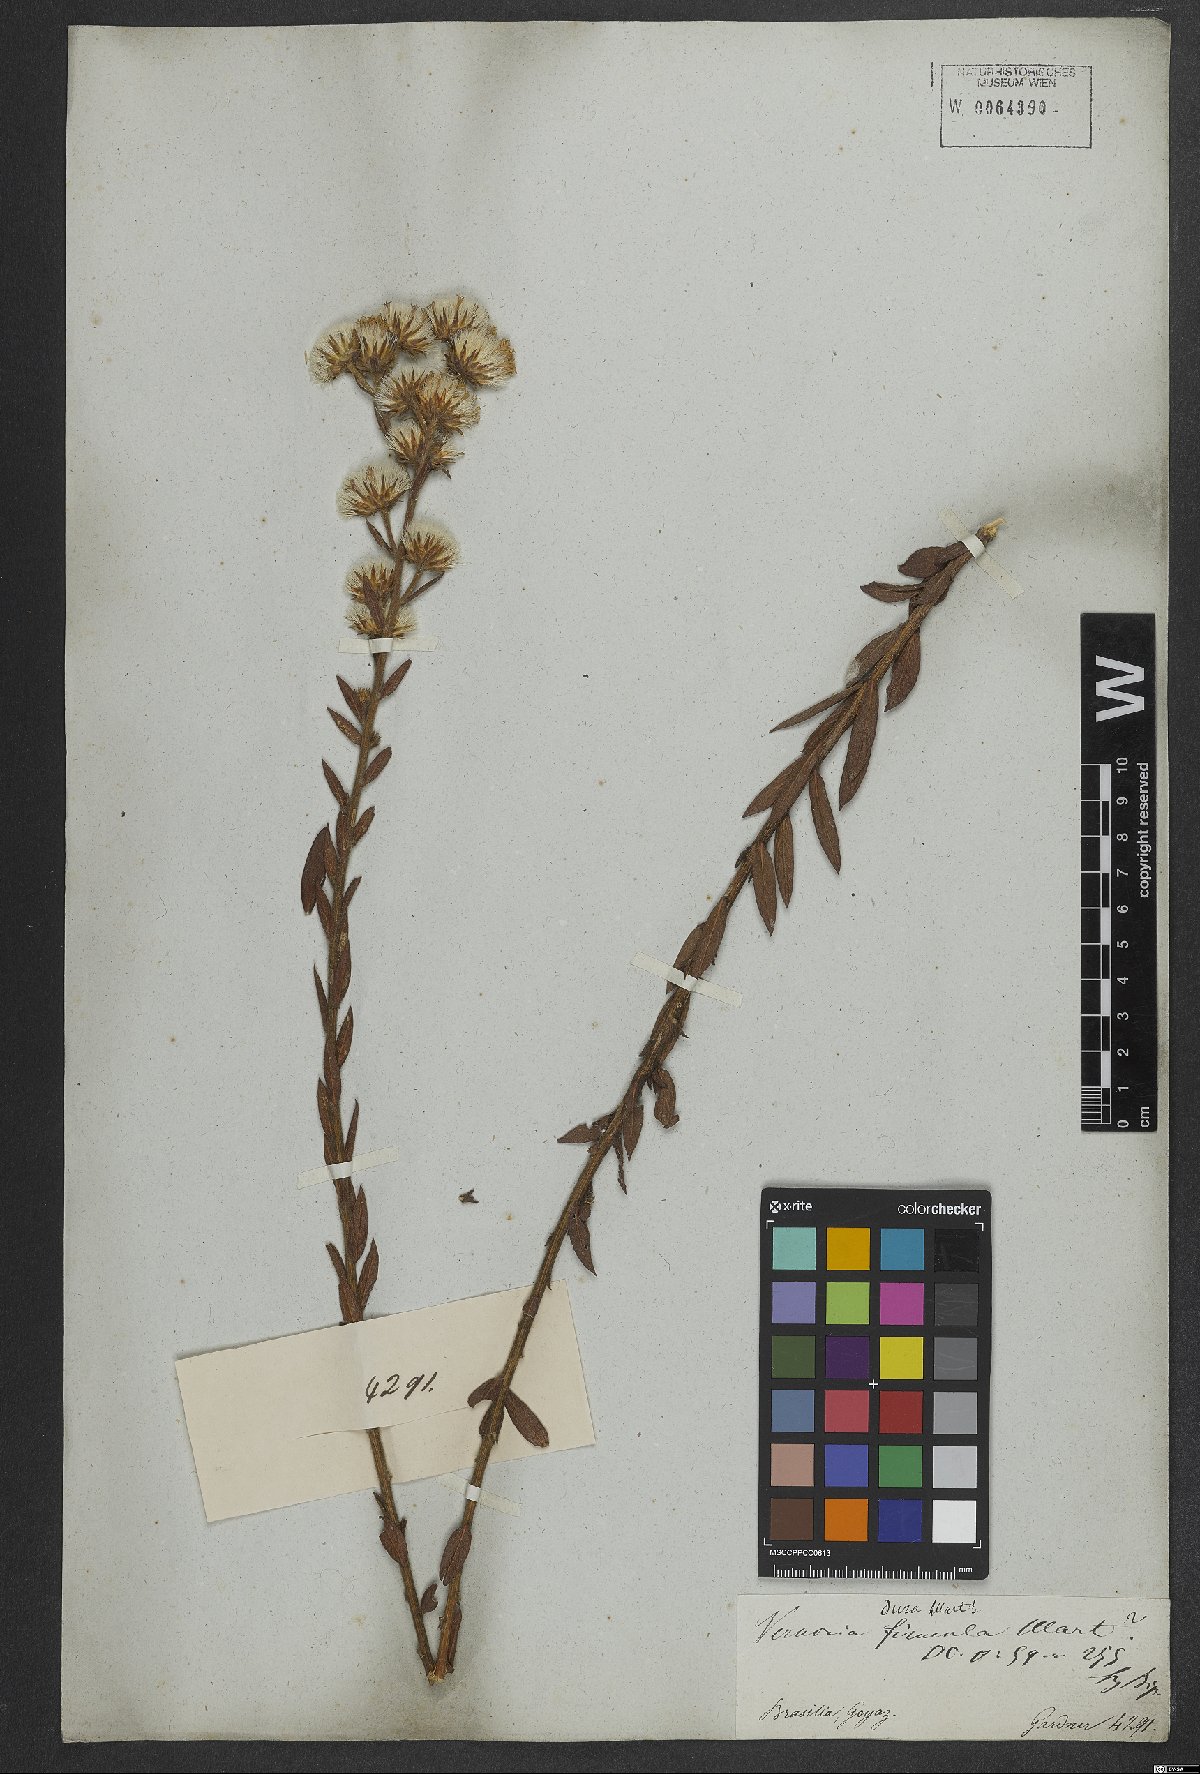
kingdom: Plantae
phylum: Tracheophyta
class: Magnoliopsida
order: Asterales
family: Asteraceae
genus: Lessingianthus
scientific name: Lessingianthus durus
